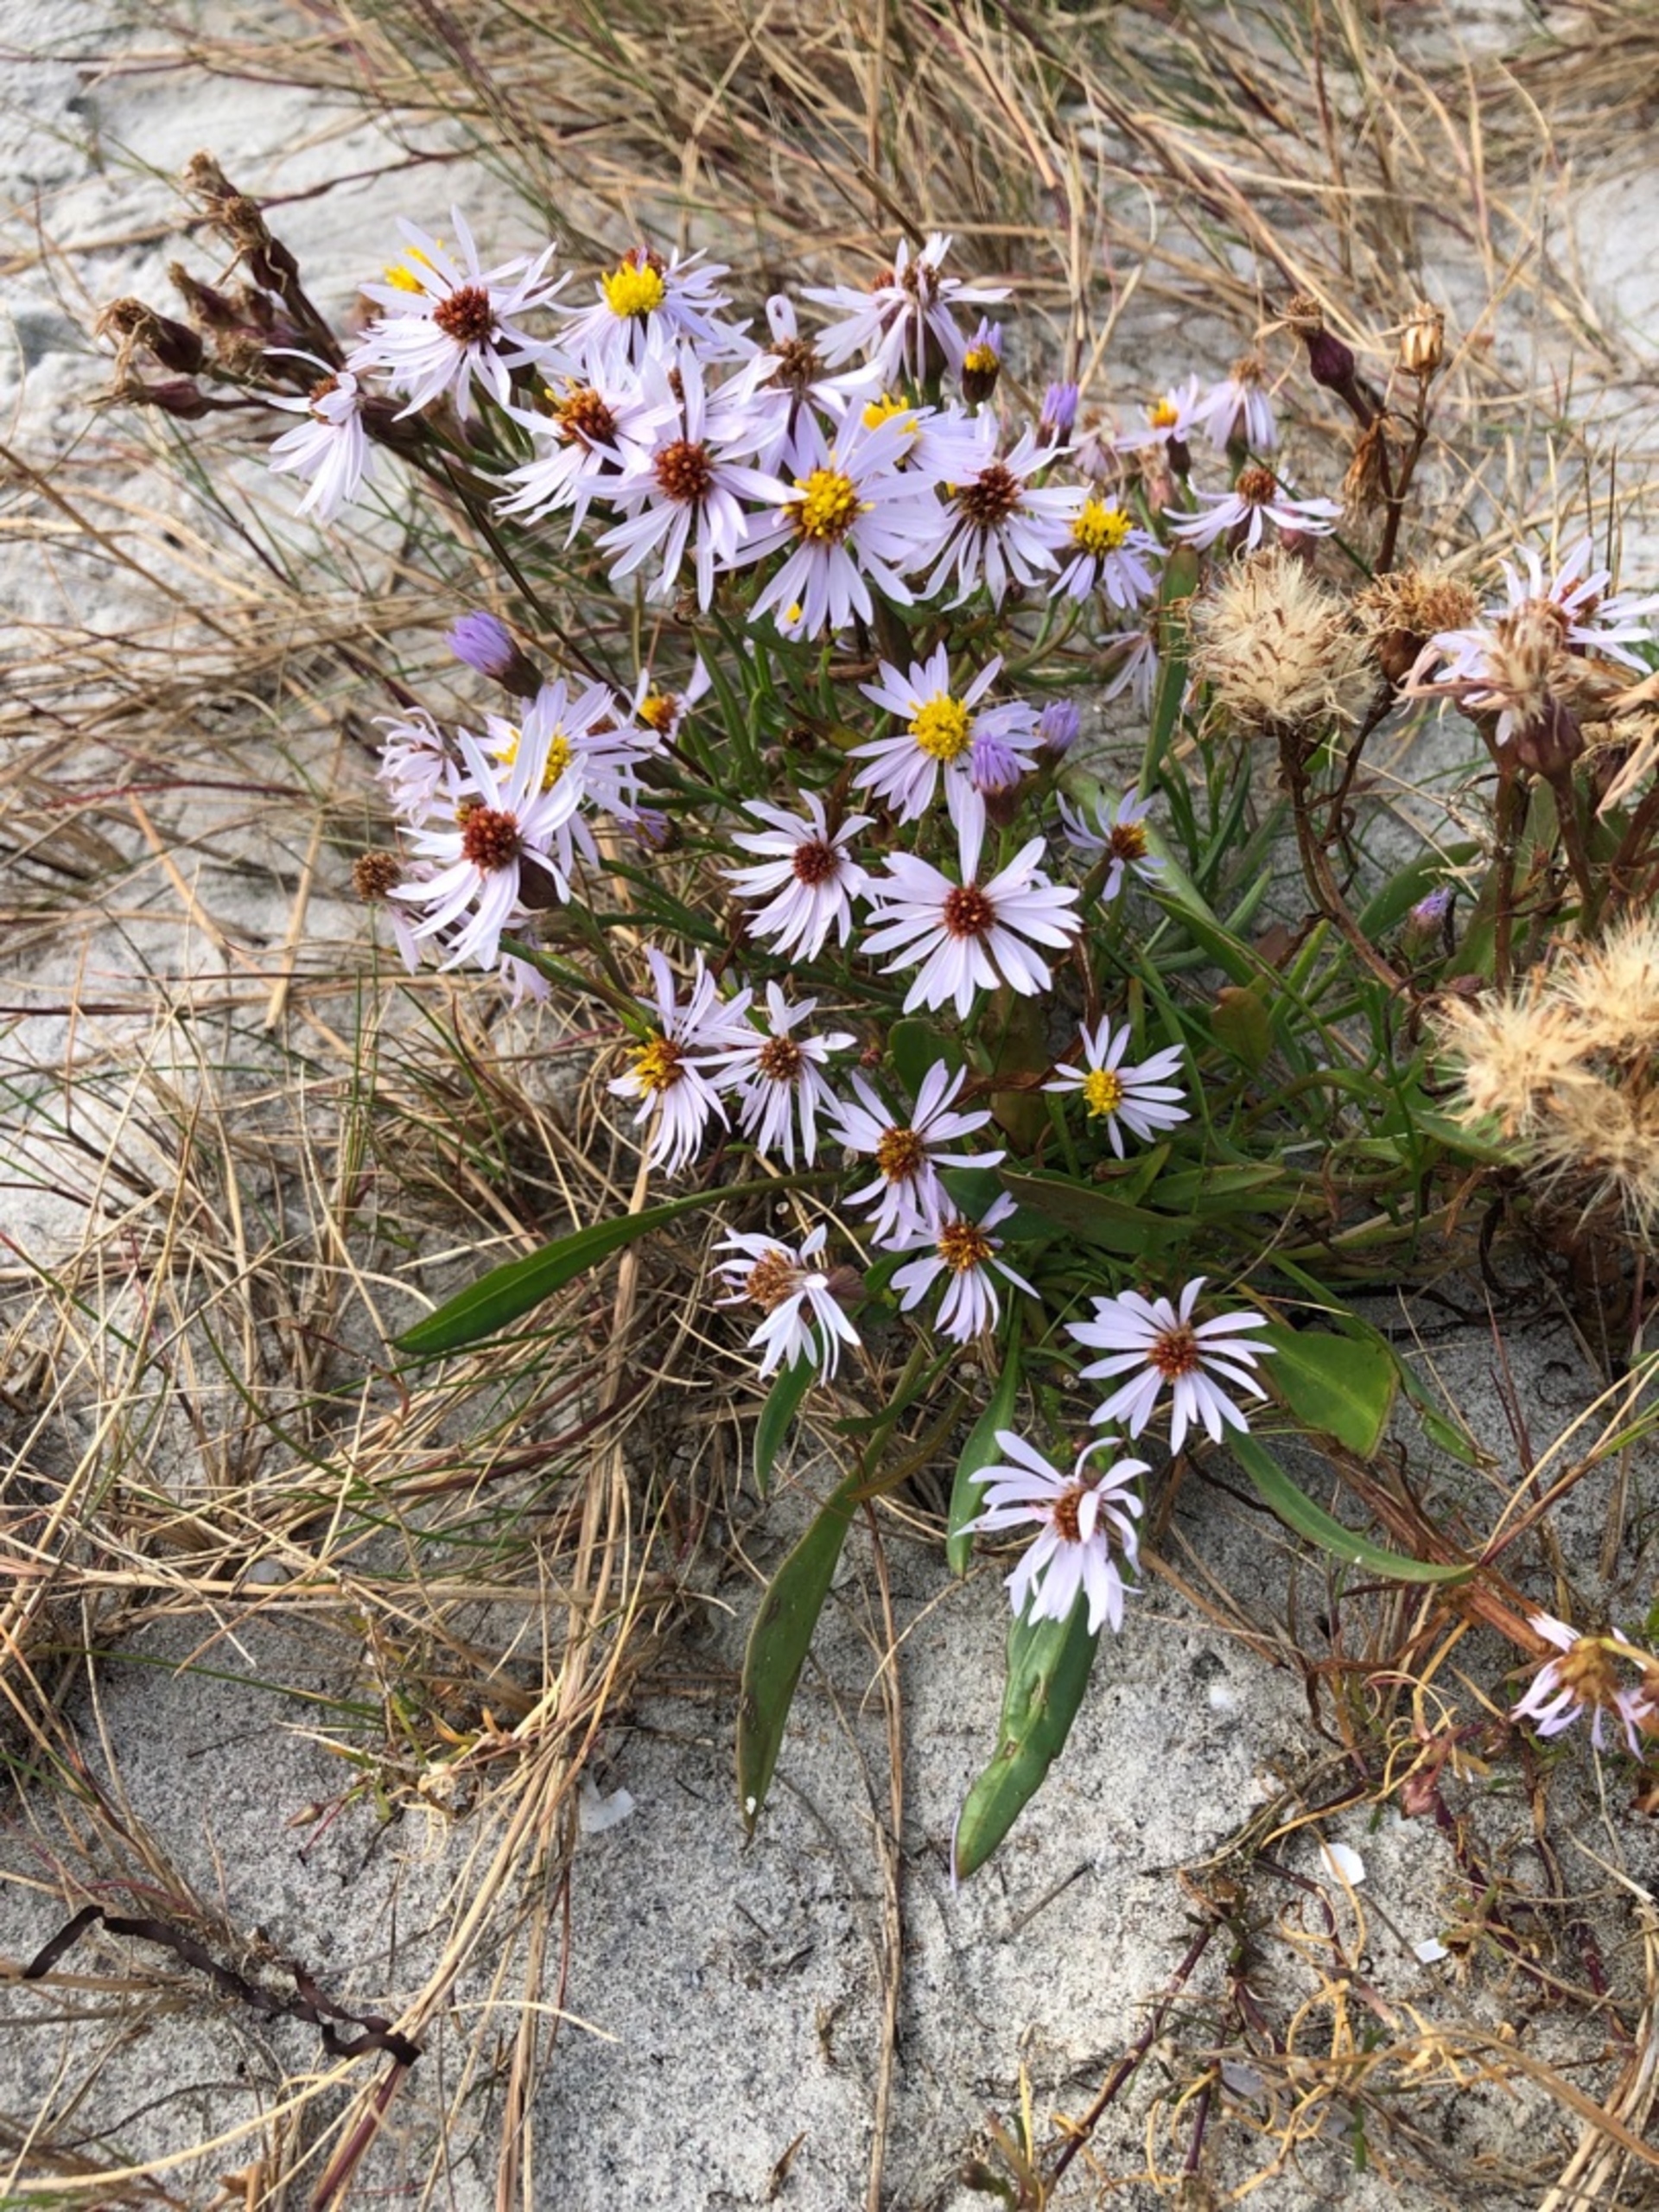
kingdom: Plantae
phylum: Tracheophyta
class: Magnoliopsida
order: Asterales
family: Asteraceae
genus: Tripolium
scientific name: Tripolium pannonicum
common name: Strandasters
